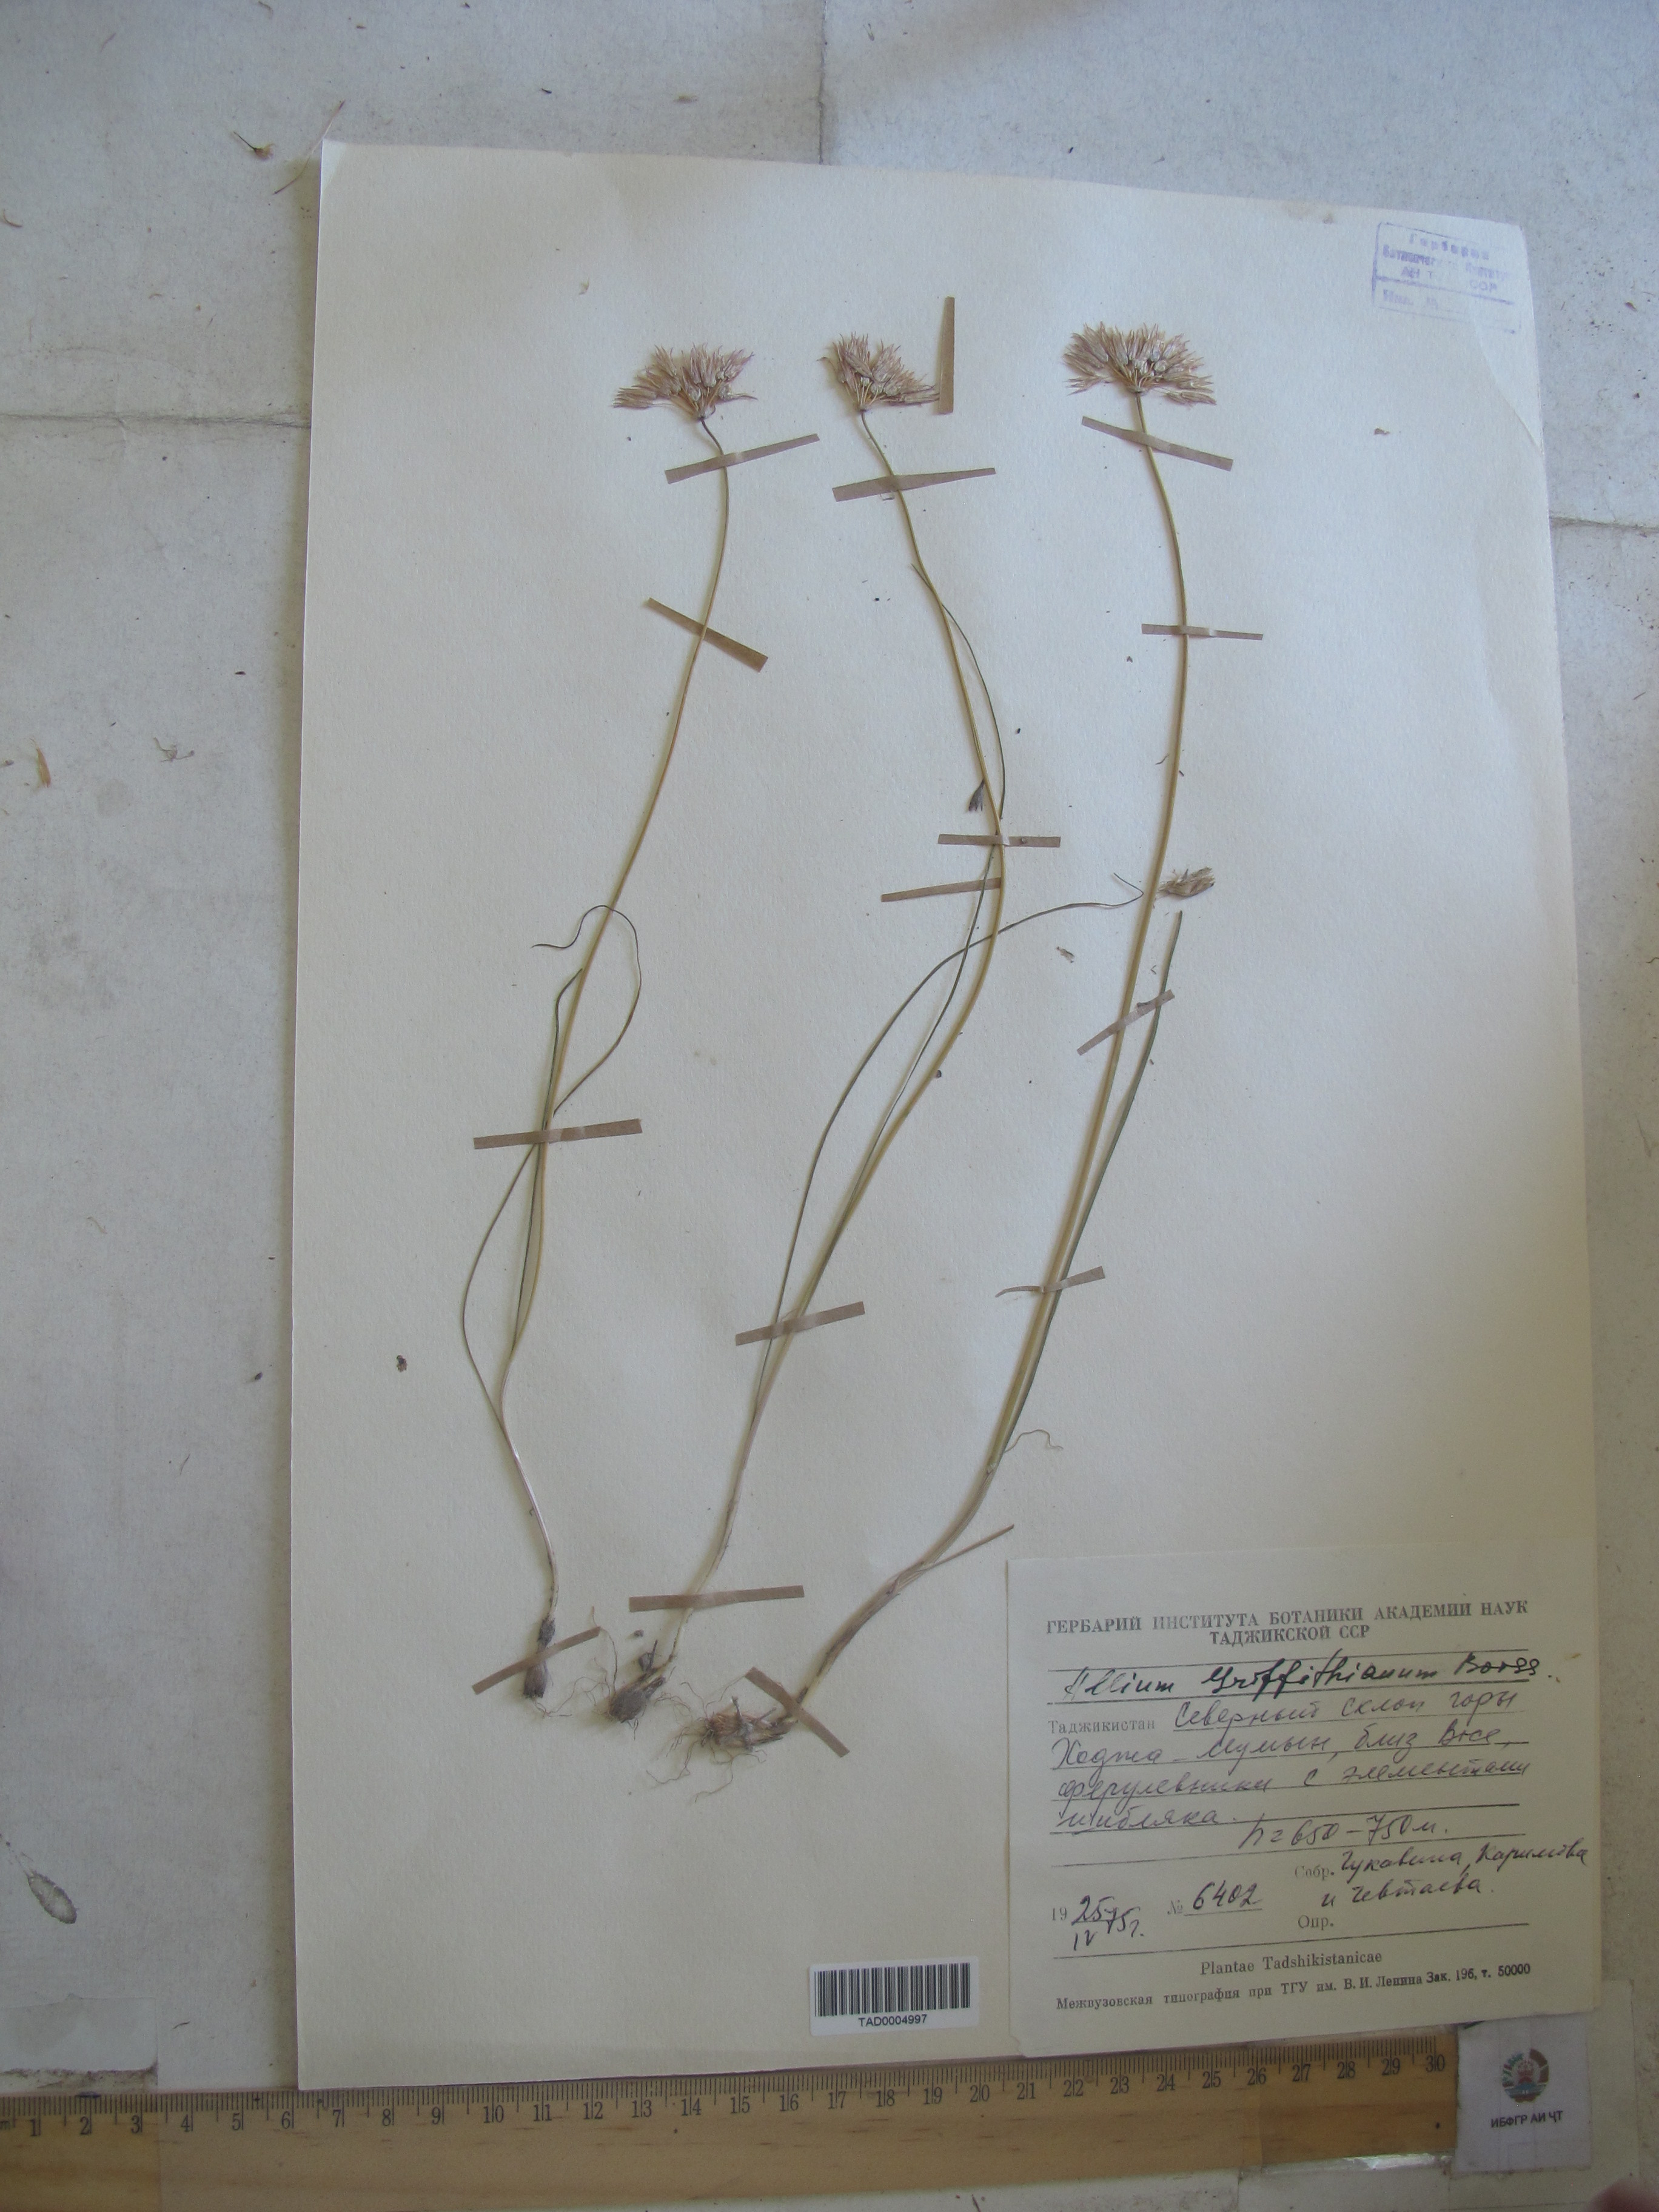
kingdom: Plantae
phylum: Tracheophyta
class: Liliopsida
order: Asparagales
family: Amaryllidaceae
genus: Allium
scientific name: Allium griffithianum
